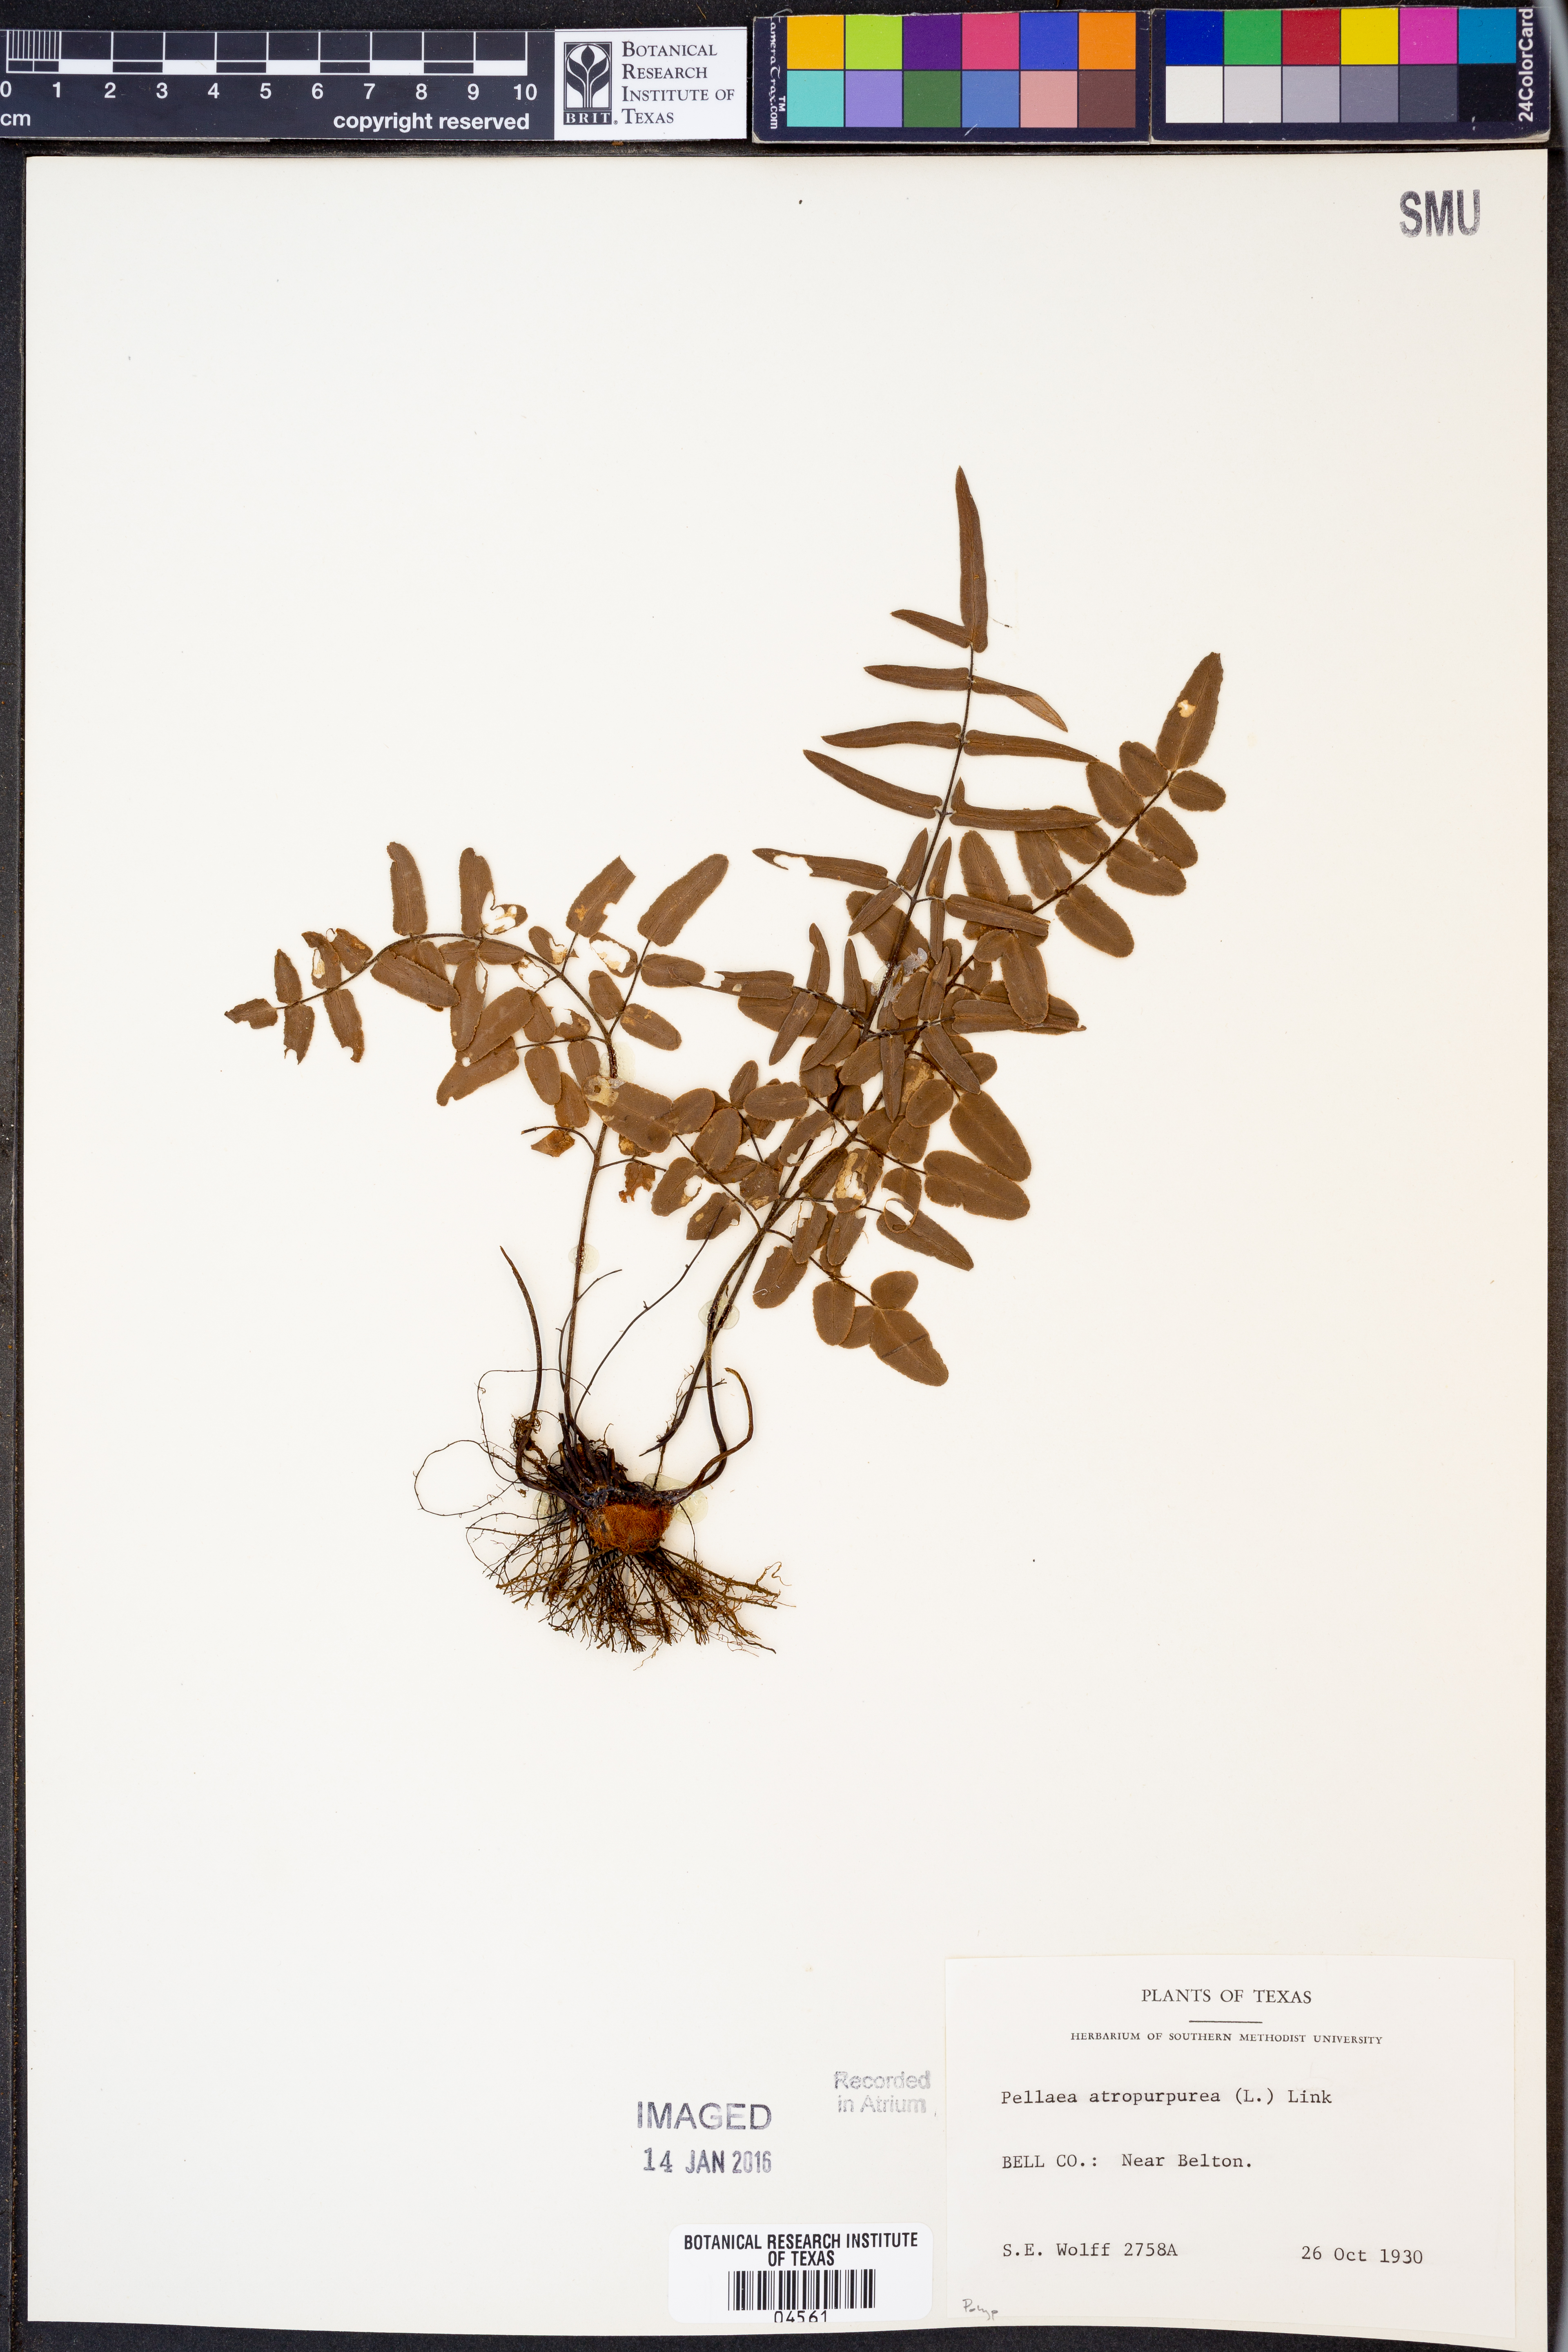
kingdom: Plantae
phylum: Tracheophyta
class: Polypodiopsida
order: Polypodiales
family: Pteridaceae
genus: Pellaea
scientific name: Pellaea atropurpurea
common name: Hairy cliffbrake
